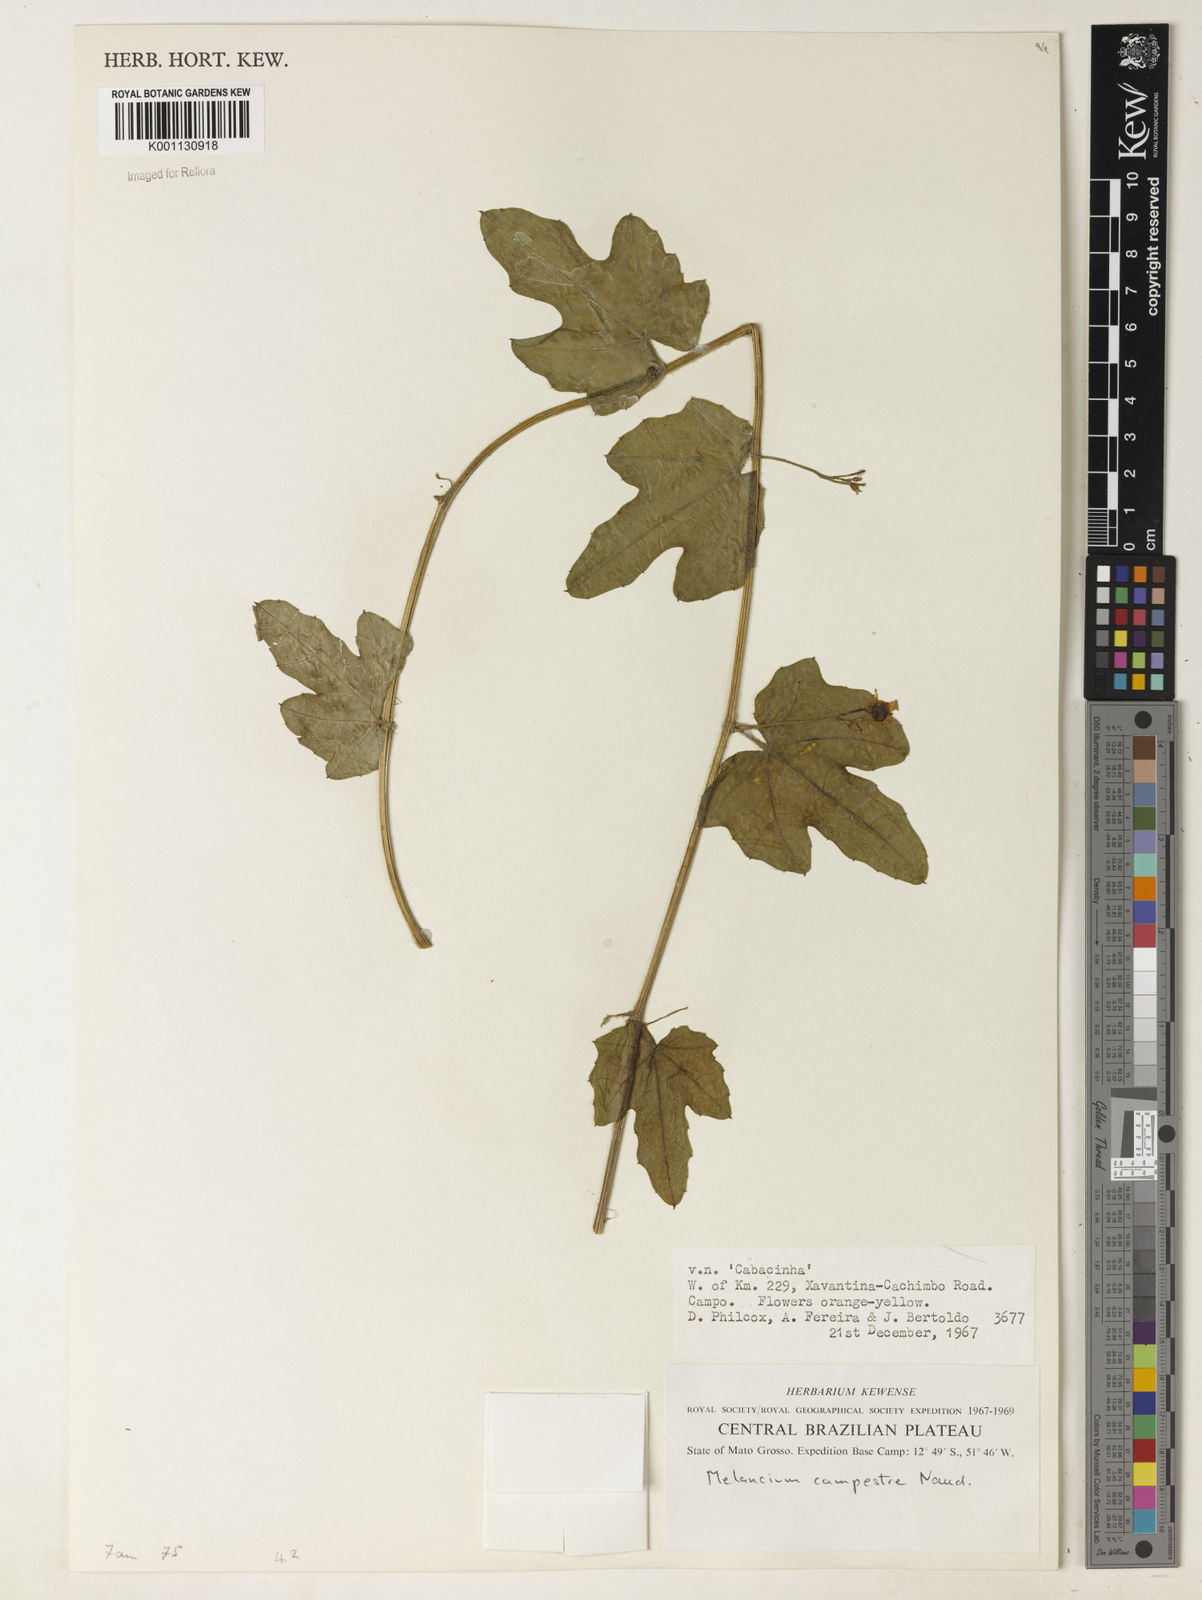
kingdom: Plantae
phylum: Tracheophyta
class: Magnoliopsida
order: Cucurbitales
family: Cucurbitaceae
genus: Melothria
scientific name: Melothria campestris
